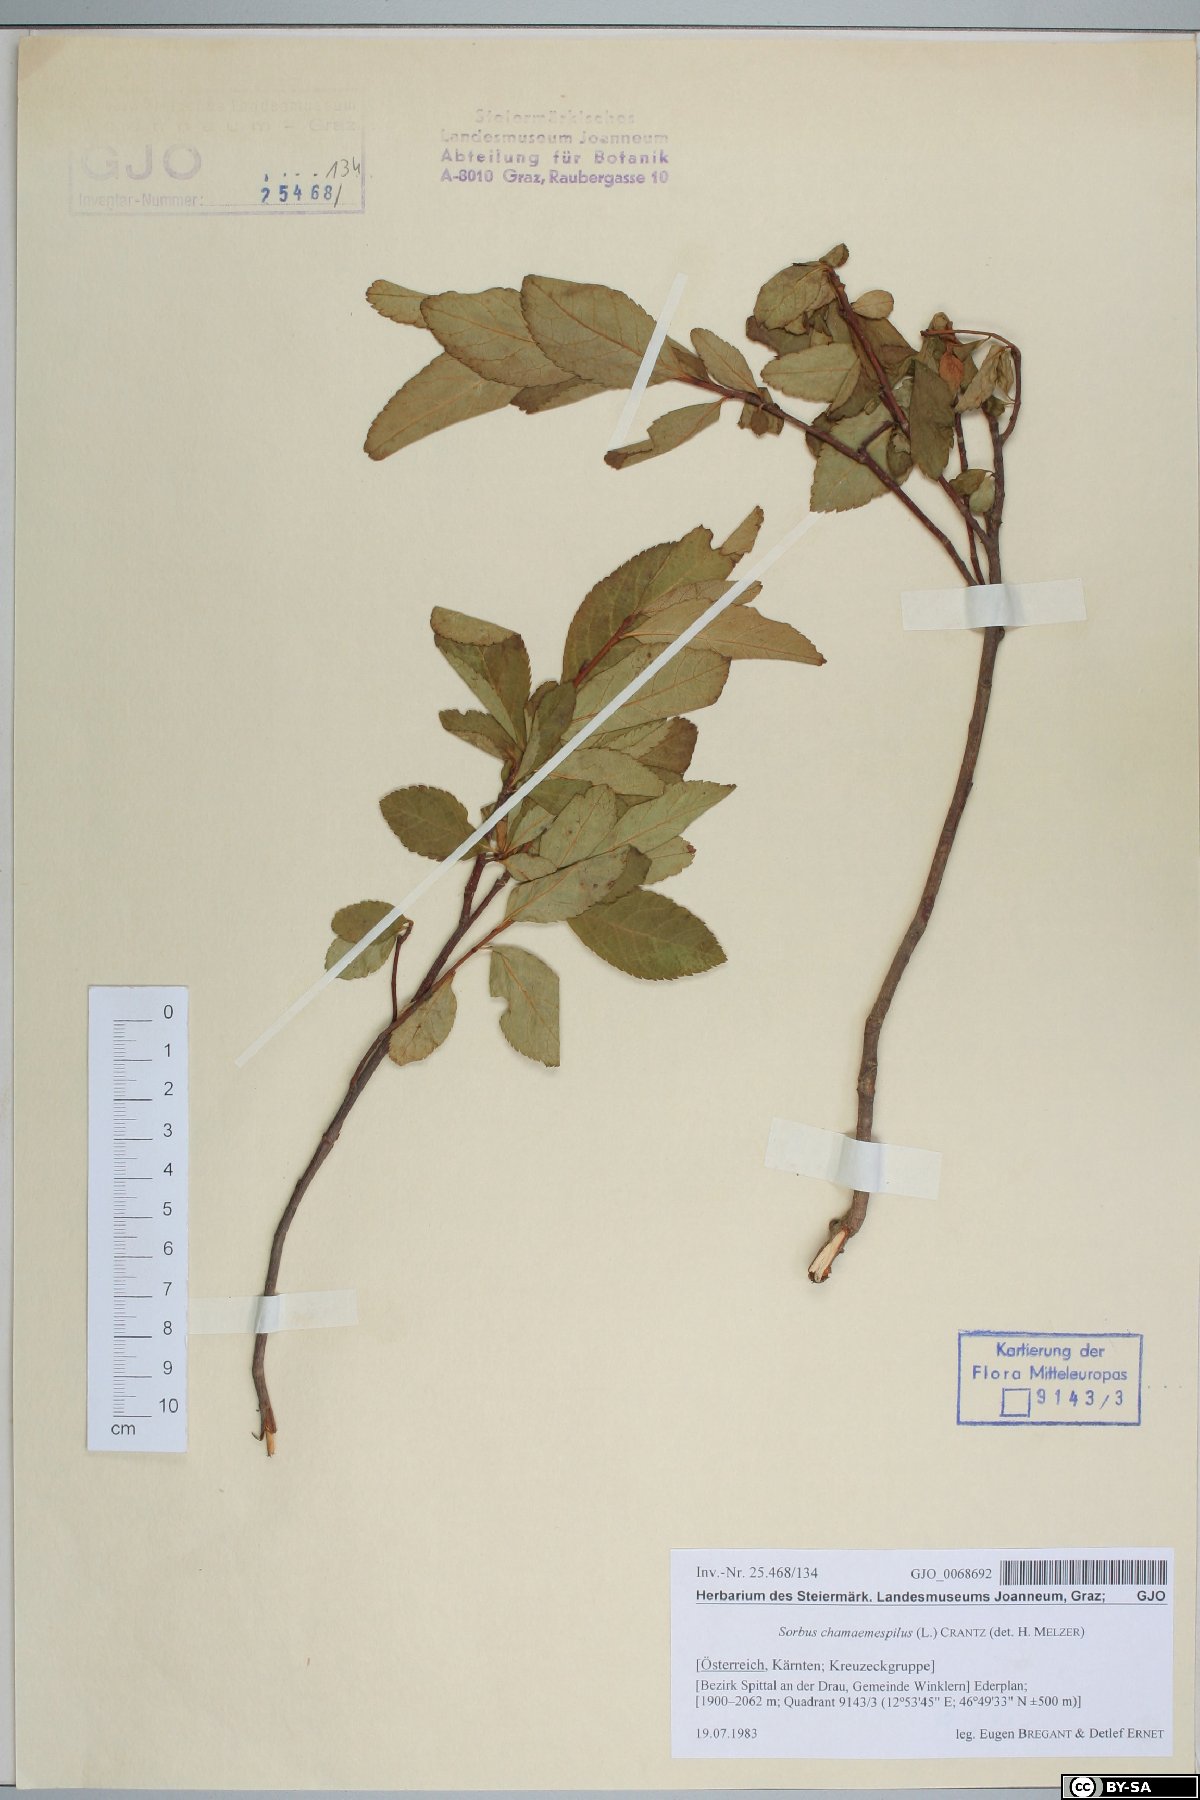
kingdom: Plantae
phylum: Tracheophyta
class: Magnoliopsida
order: Rosales
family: Rosaceae
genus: Chamaemespilus
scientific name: Chamaemespilus alpina
